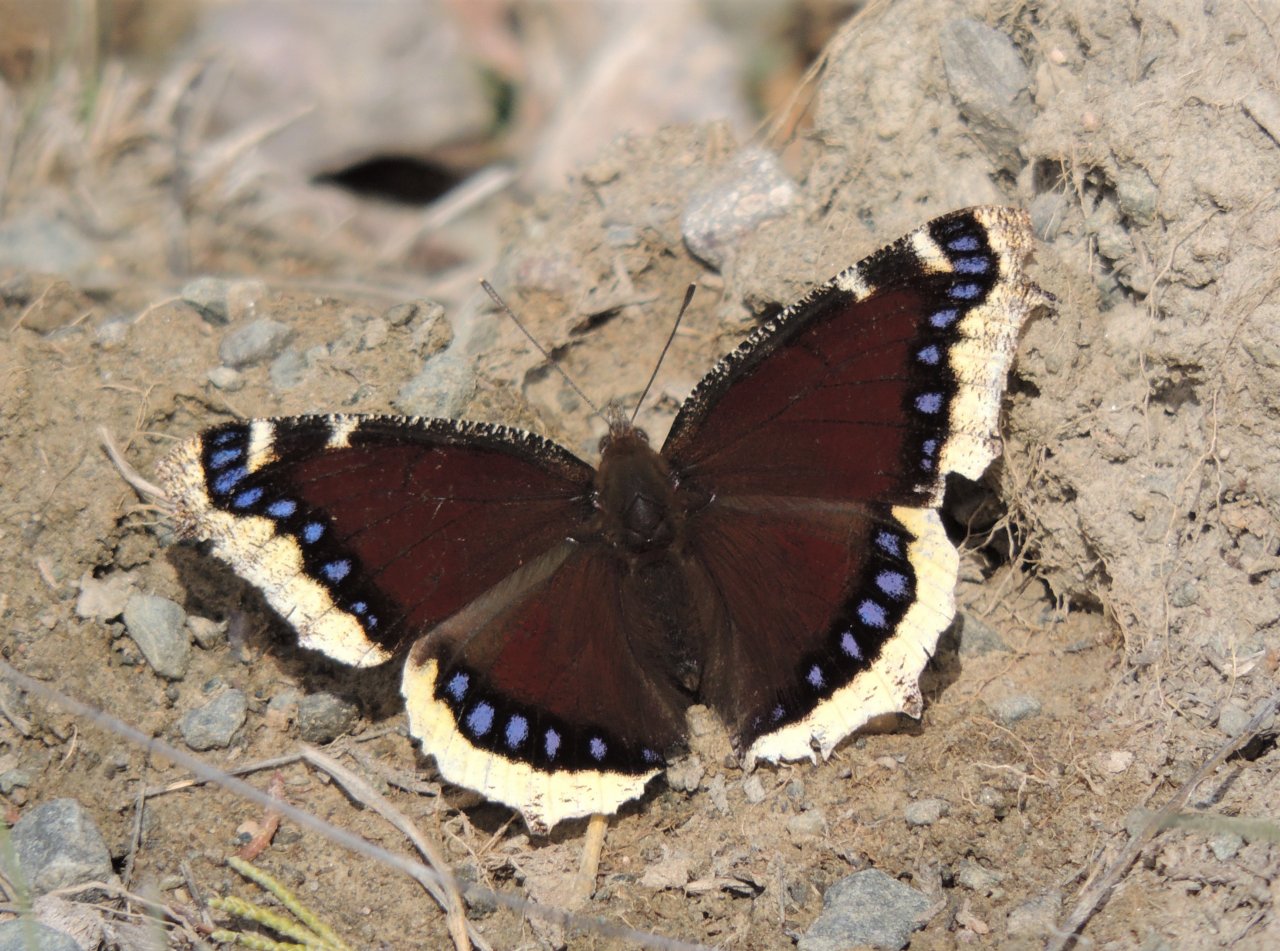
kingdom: Animalia
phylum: Arthropoda
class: Insecta
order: Lepidoptera
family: Nymphalidae
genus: Nymphalis
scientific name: Nymphalis antiopa
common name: Mourning Cloak
